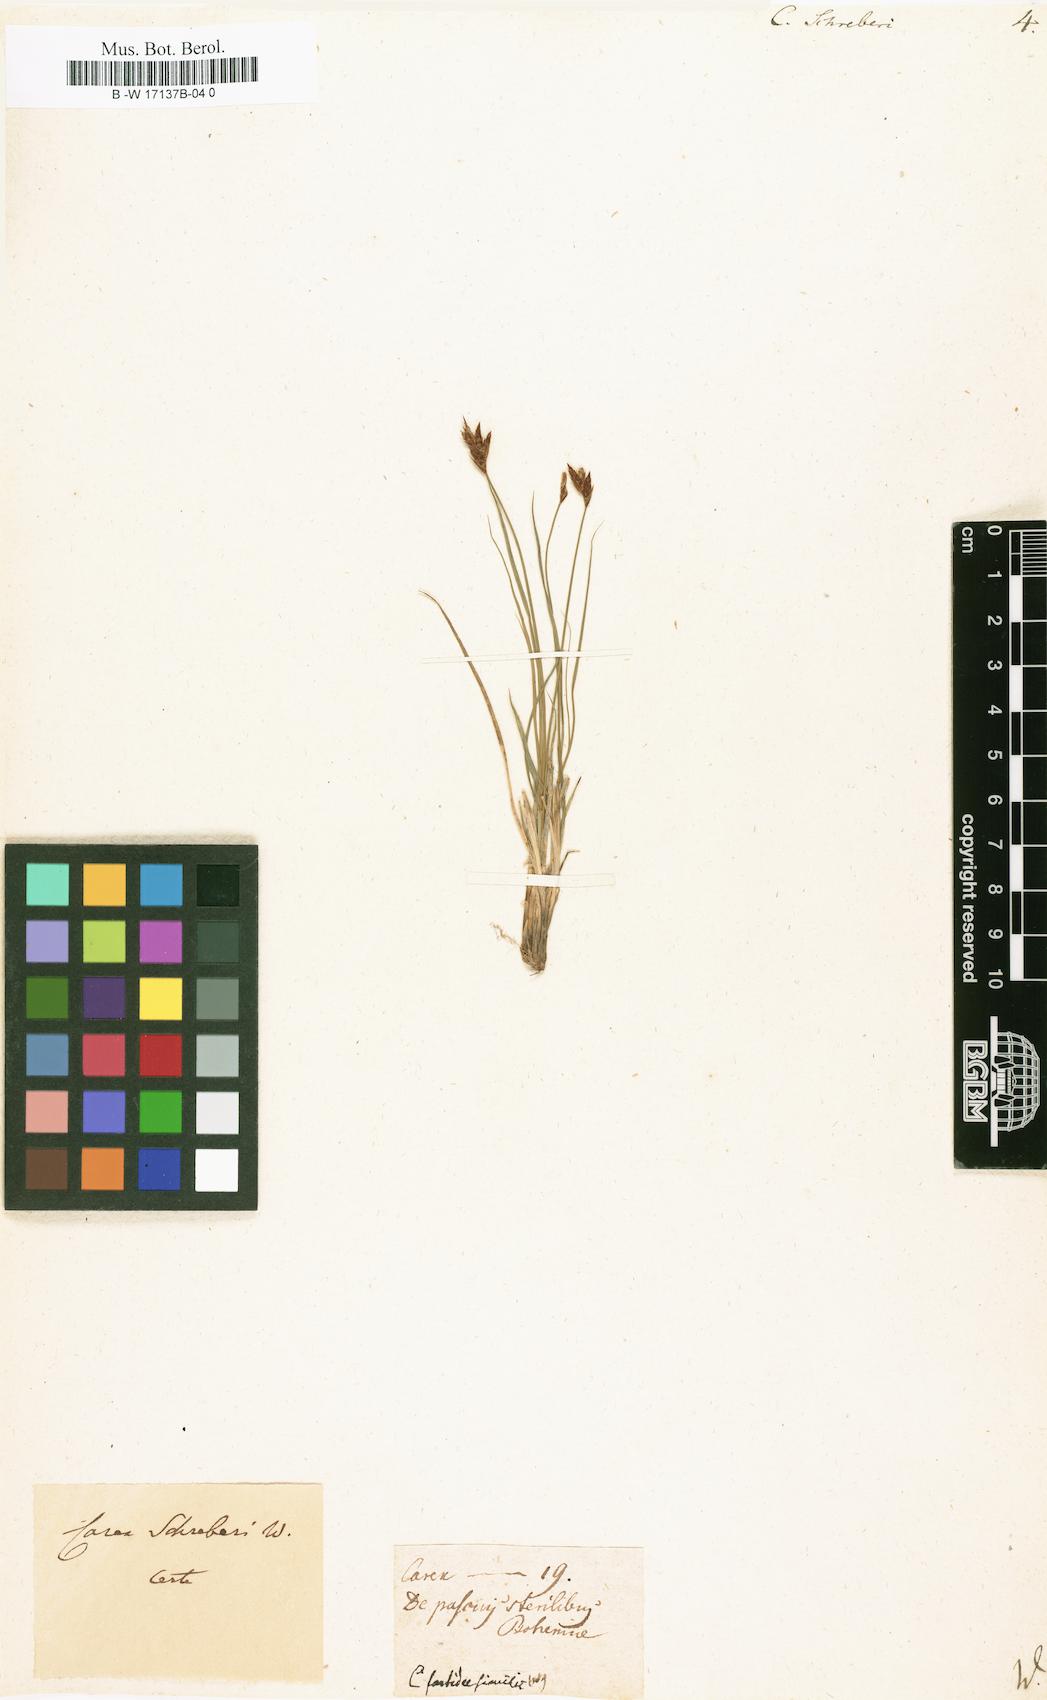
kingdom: Plantae
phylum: Tracheophyta
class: Liliopsida
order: Poales
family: Cyperaceae
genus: Carex
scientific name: Carex
